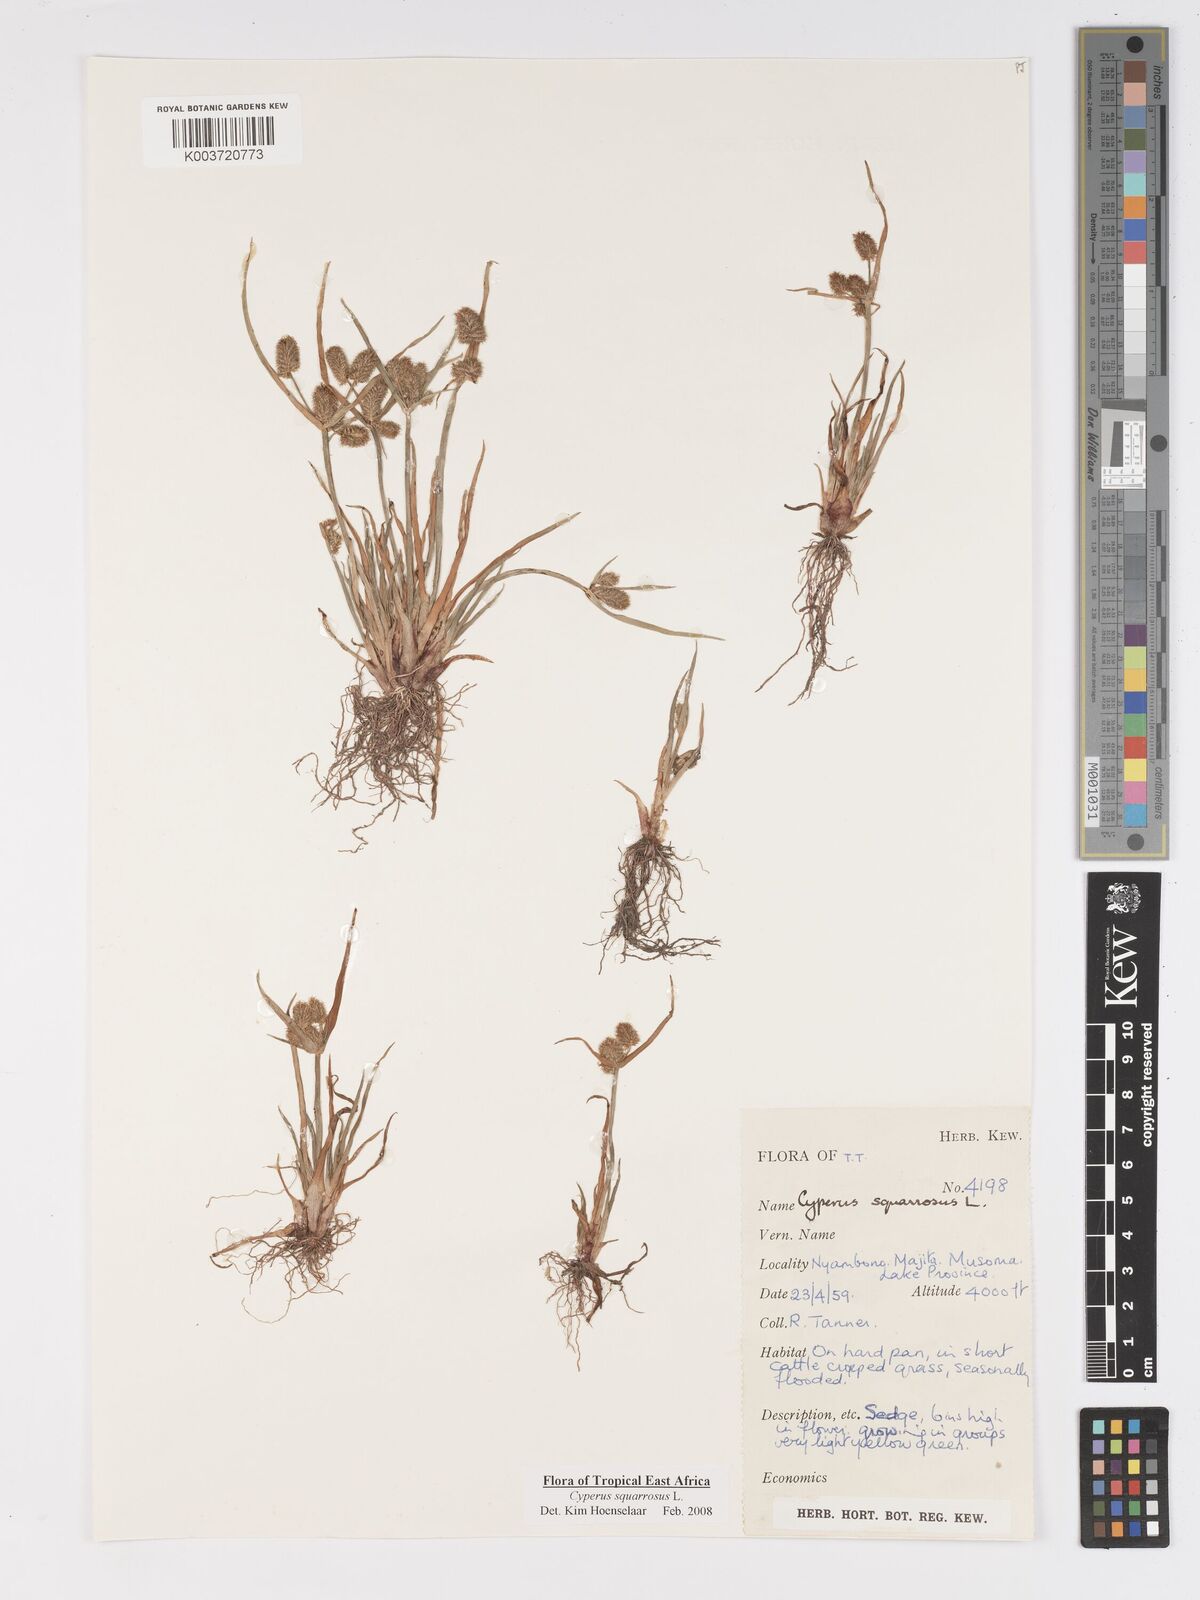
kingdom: Plantae
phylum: Tracheophyta
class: Liliopsida
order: Poales
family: Cyperaceae
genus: Cyperus
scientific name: Cyperus squarrosus
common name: Awned cyperus
